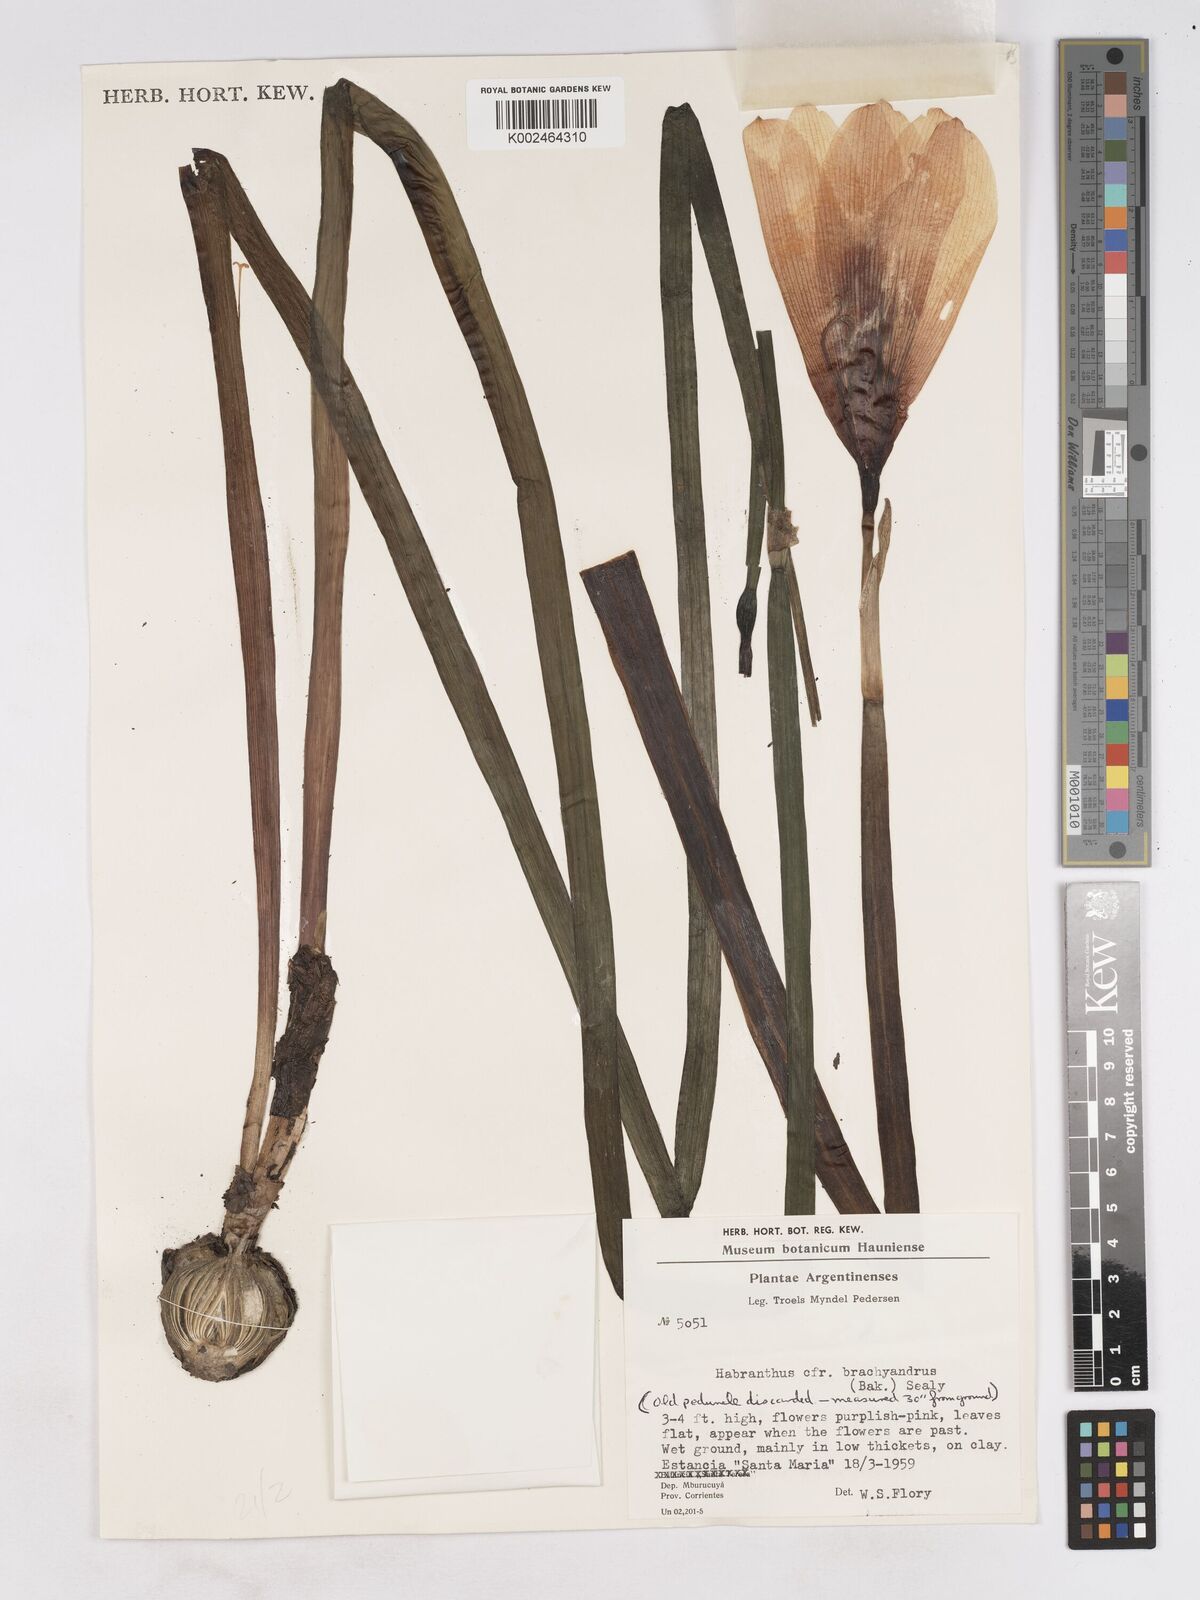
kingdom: Plantae
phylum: Tracheophyta
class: Liliopsida
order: Asparagales
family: Amaryllidaceae
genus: Zephyranthes
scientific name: Zephyranthes brachyandra
